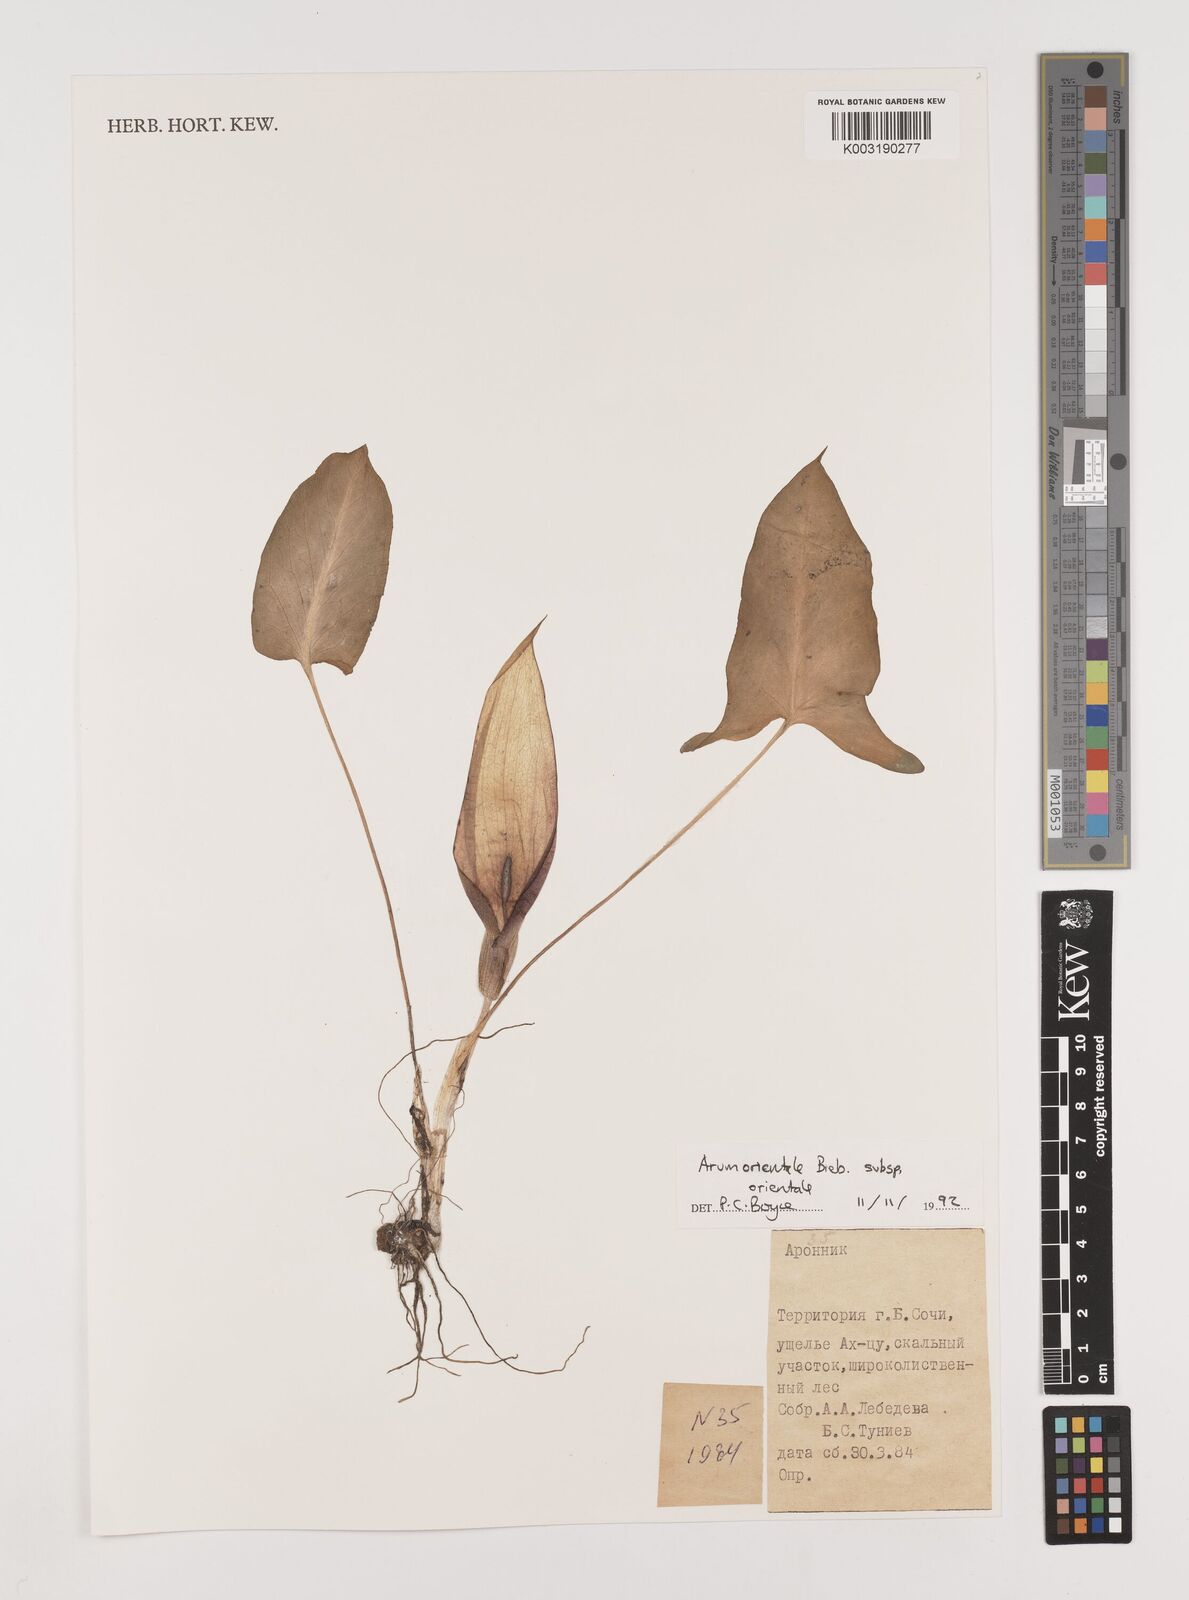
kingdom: Plantae
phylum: Tracheophyta
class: Liliopsida
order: Alismatales
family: Araceae
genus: Arum
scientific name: Arum orientale
